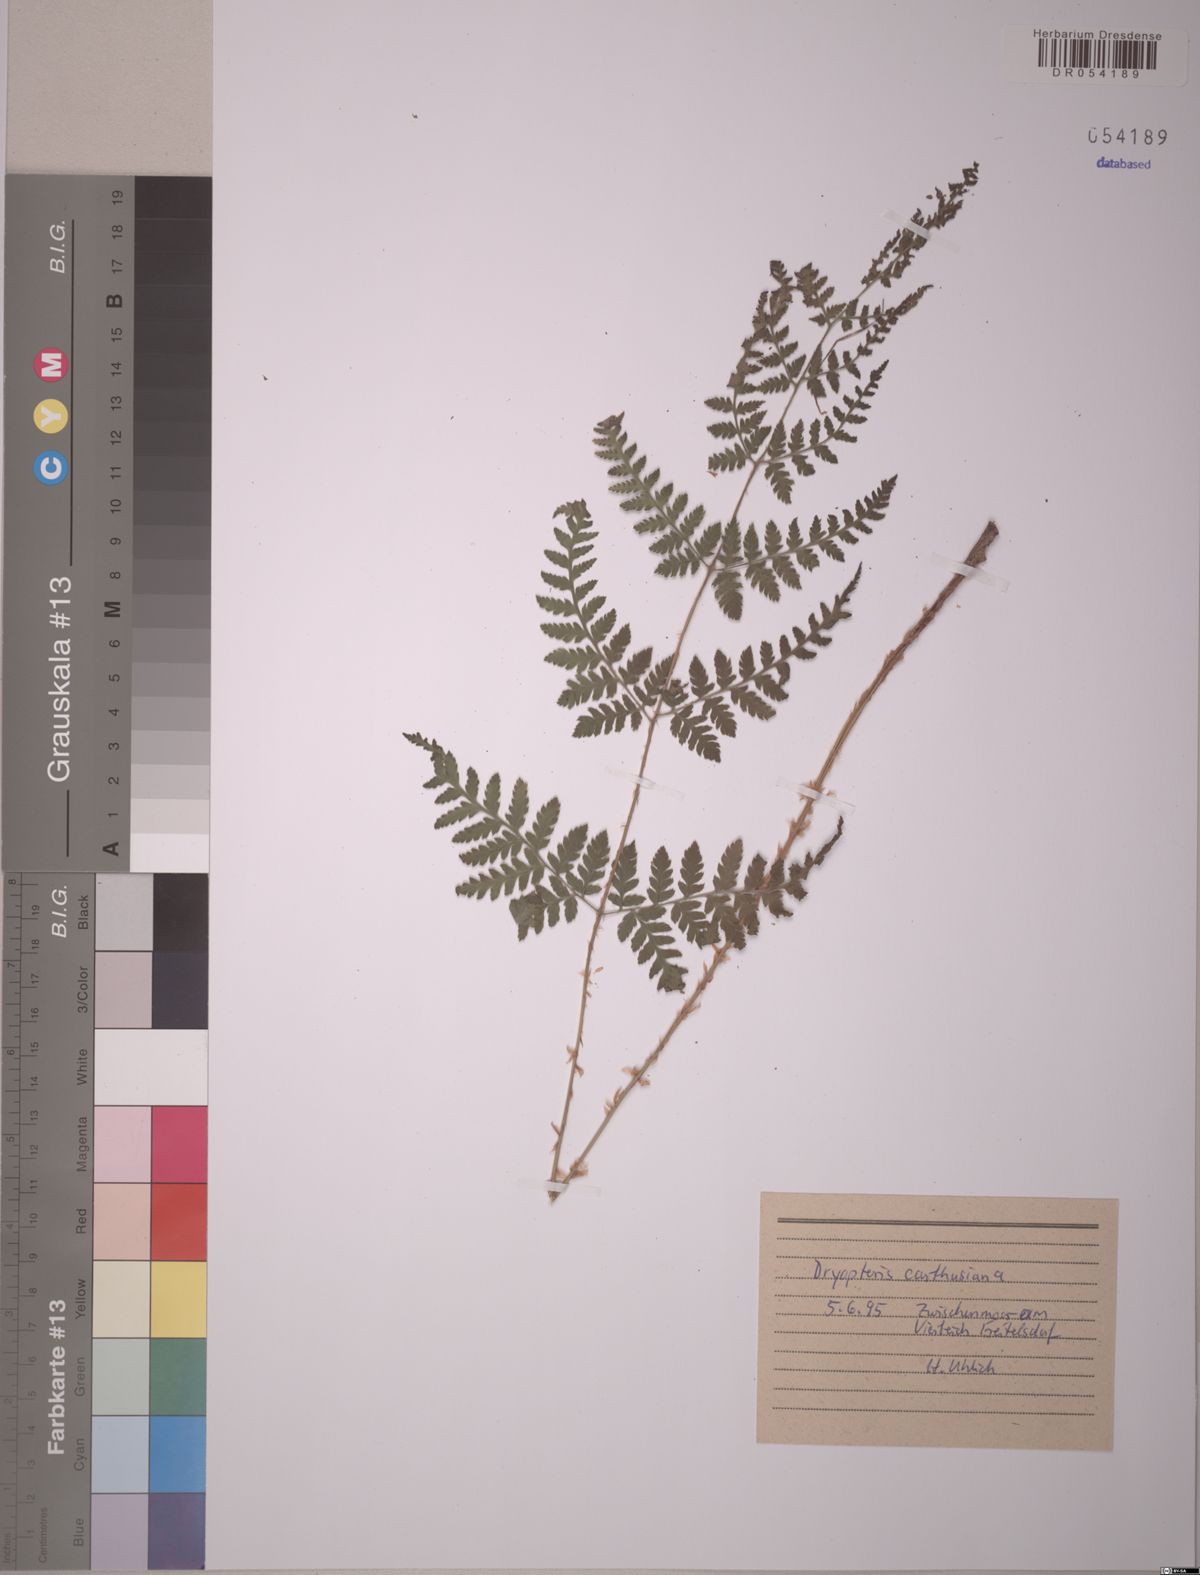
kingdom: Plantae
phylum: Tracheophyta
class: Polypodiopsida
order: Polypodiales
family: Dryopteridaceae
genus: Dryopteris
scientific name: Dryopteris carthusiana
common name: Narrow buckler-fern
